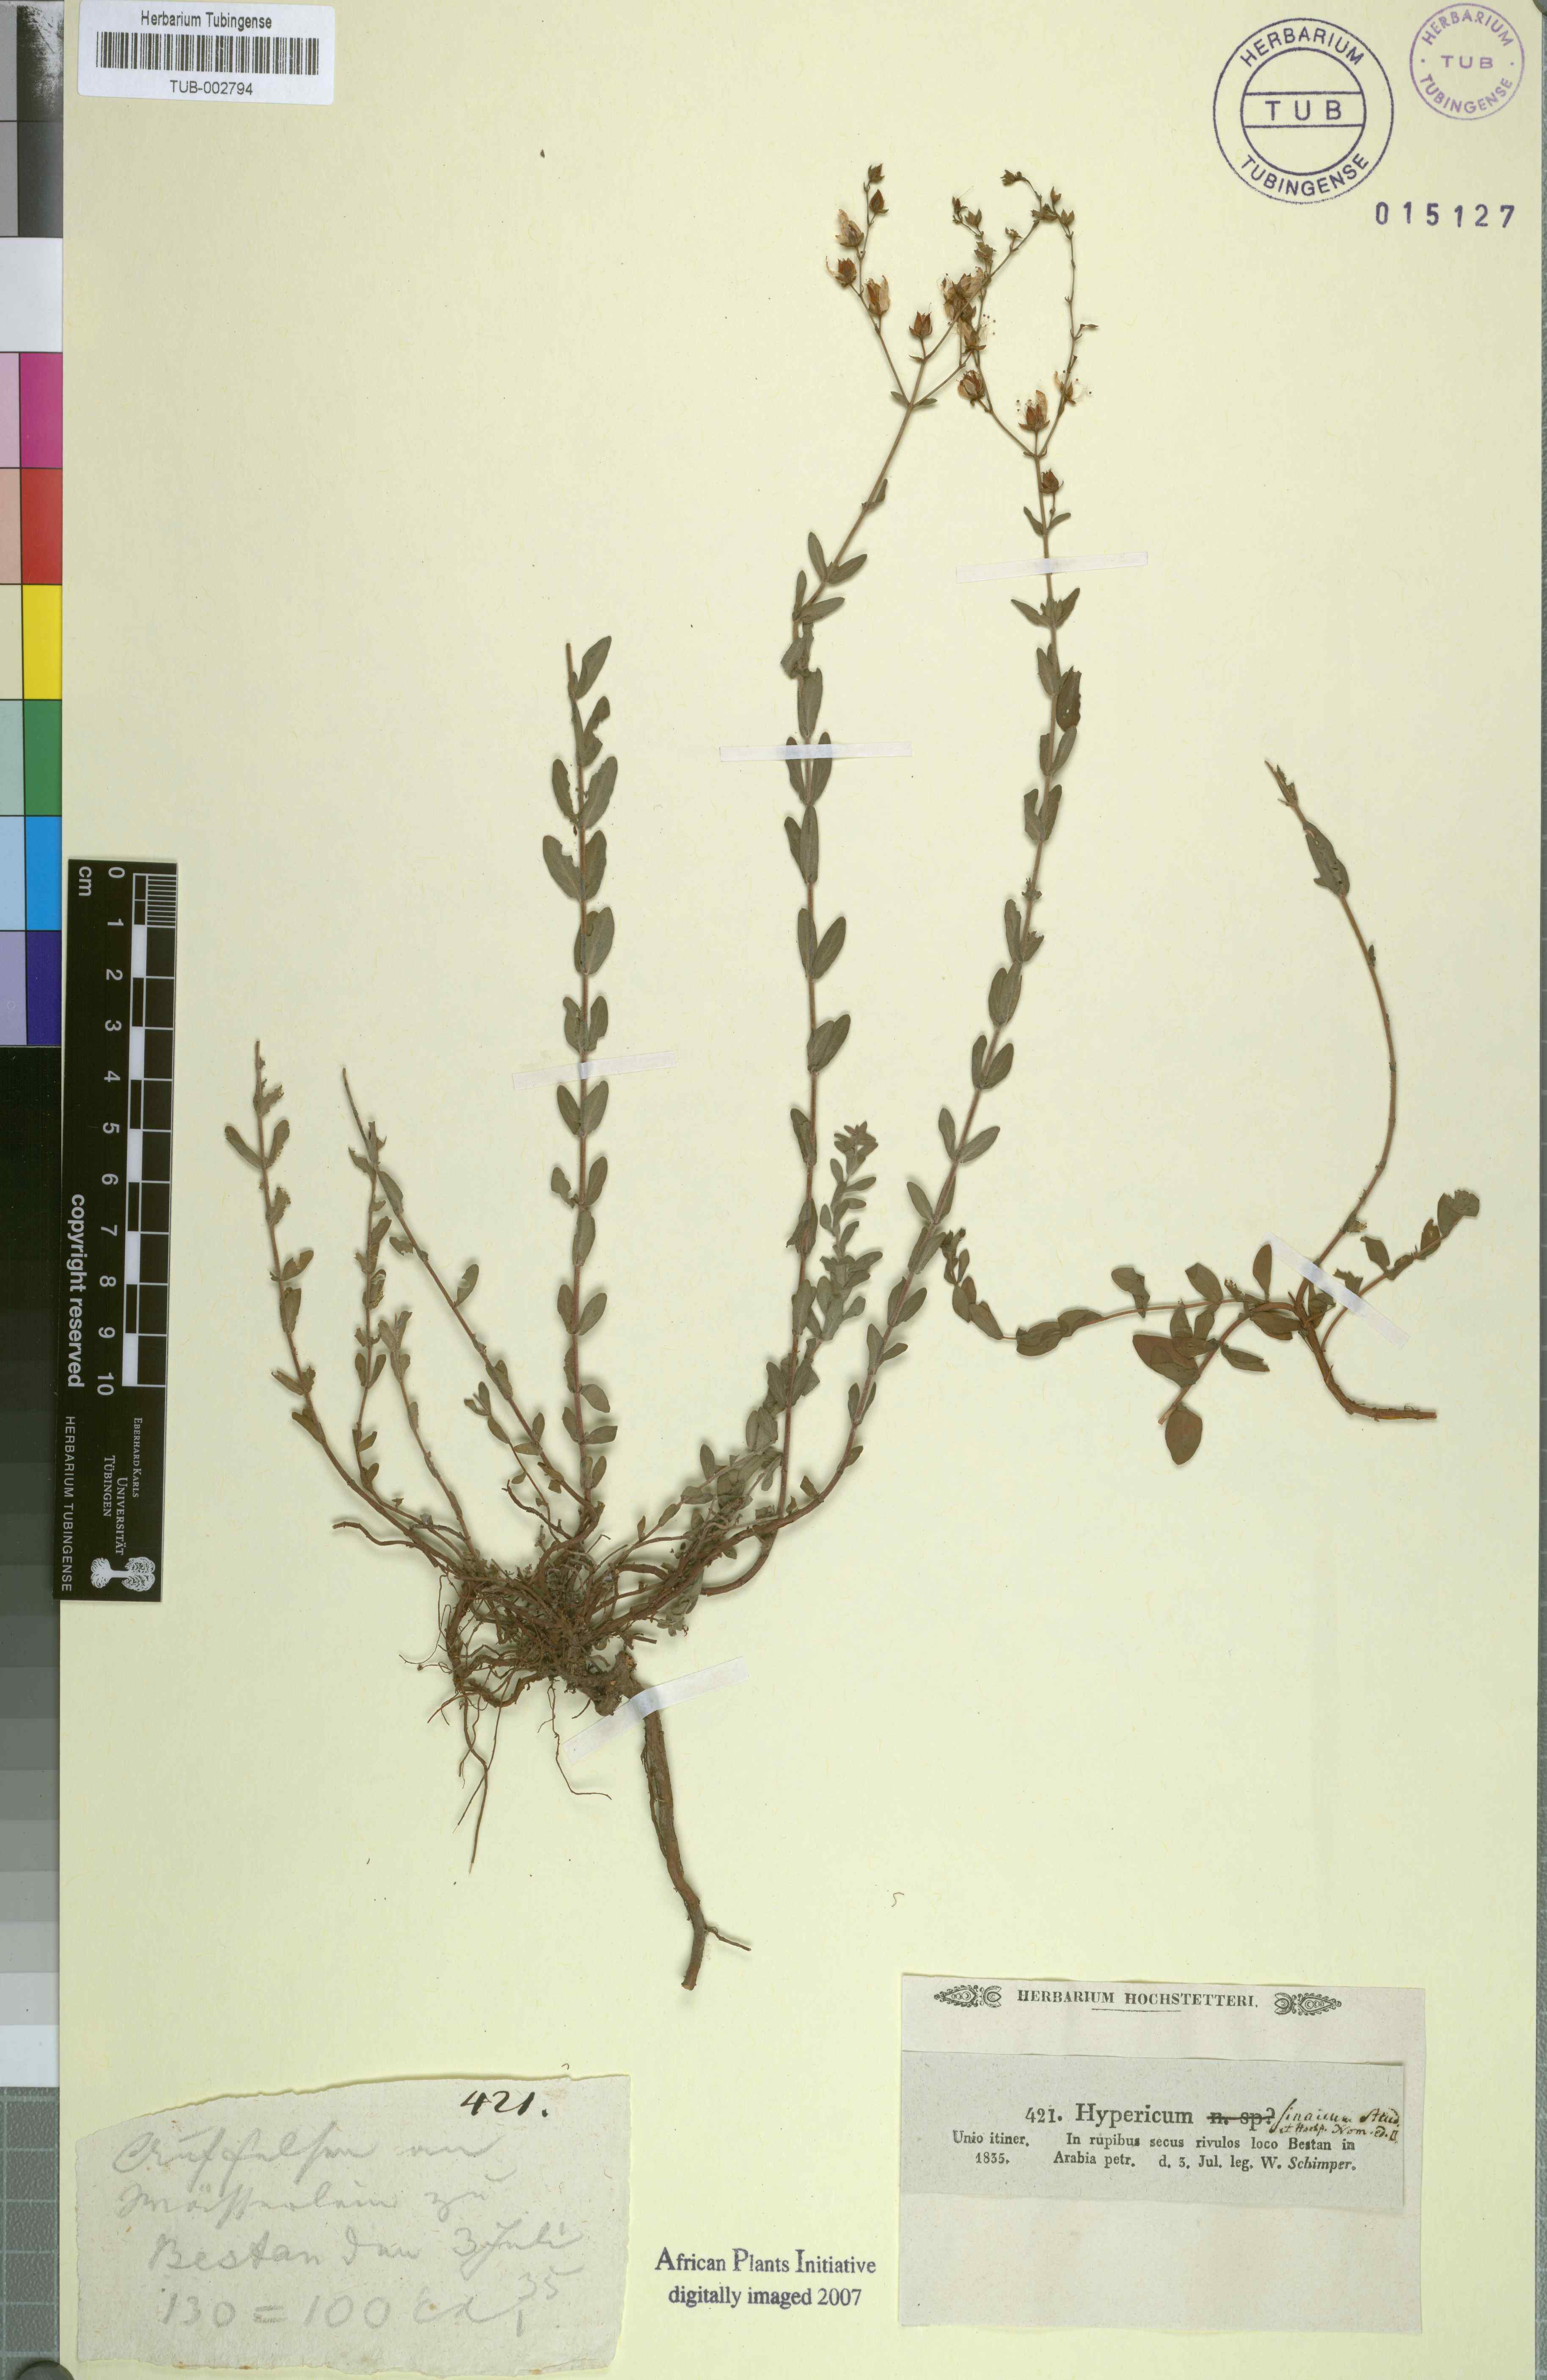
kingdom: Plantae
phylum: Tracheophyta
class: Magnoliopsida
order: Malpighiales
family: Hypericaceae
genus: Hypericum
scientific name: Hypericum sinaicum
